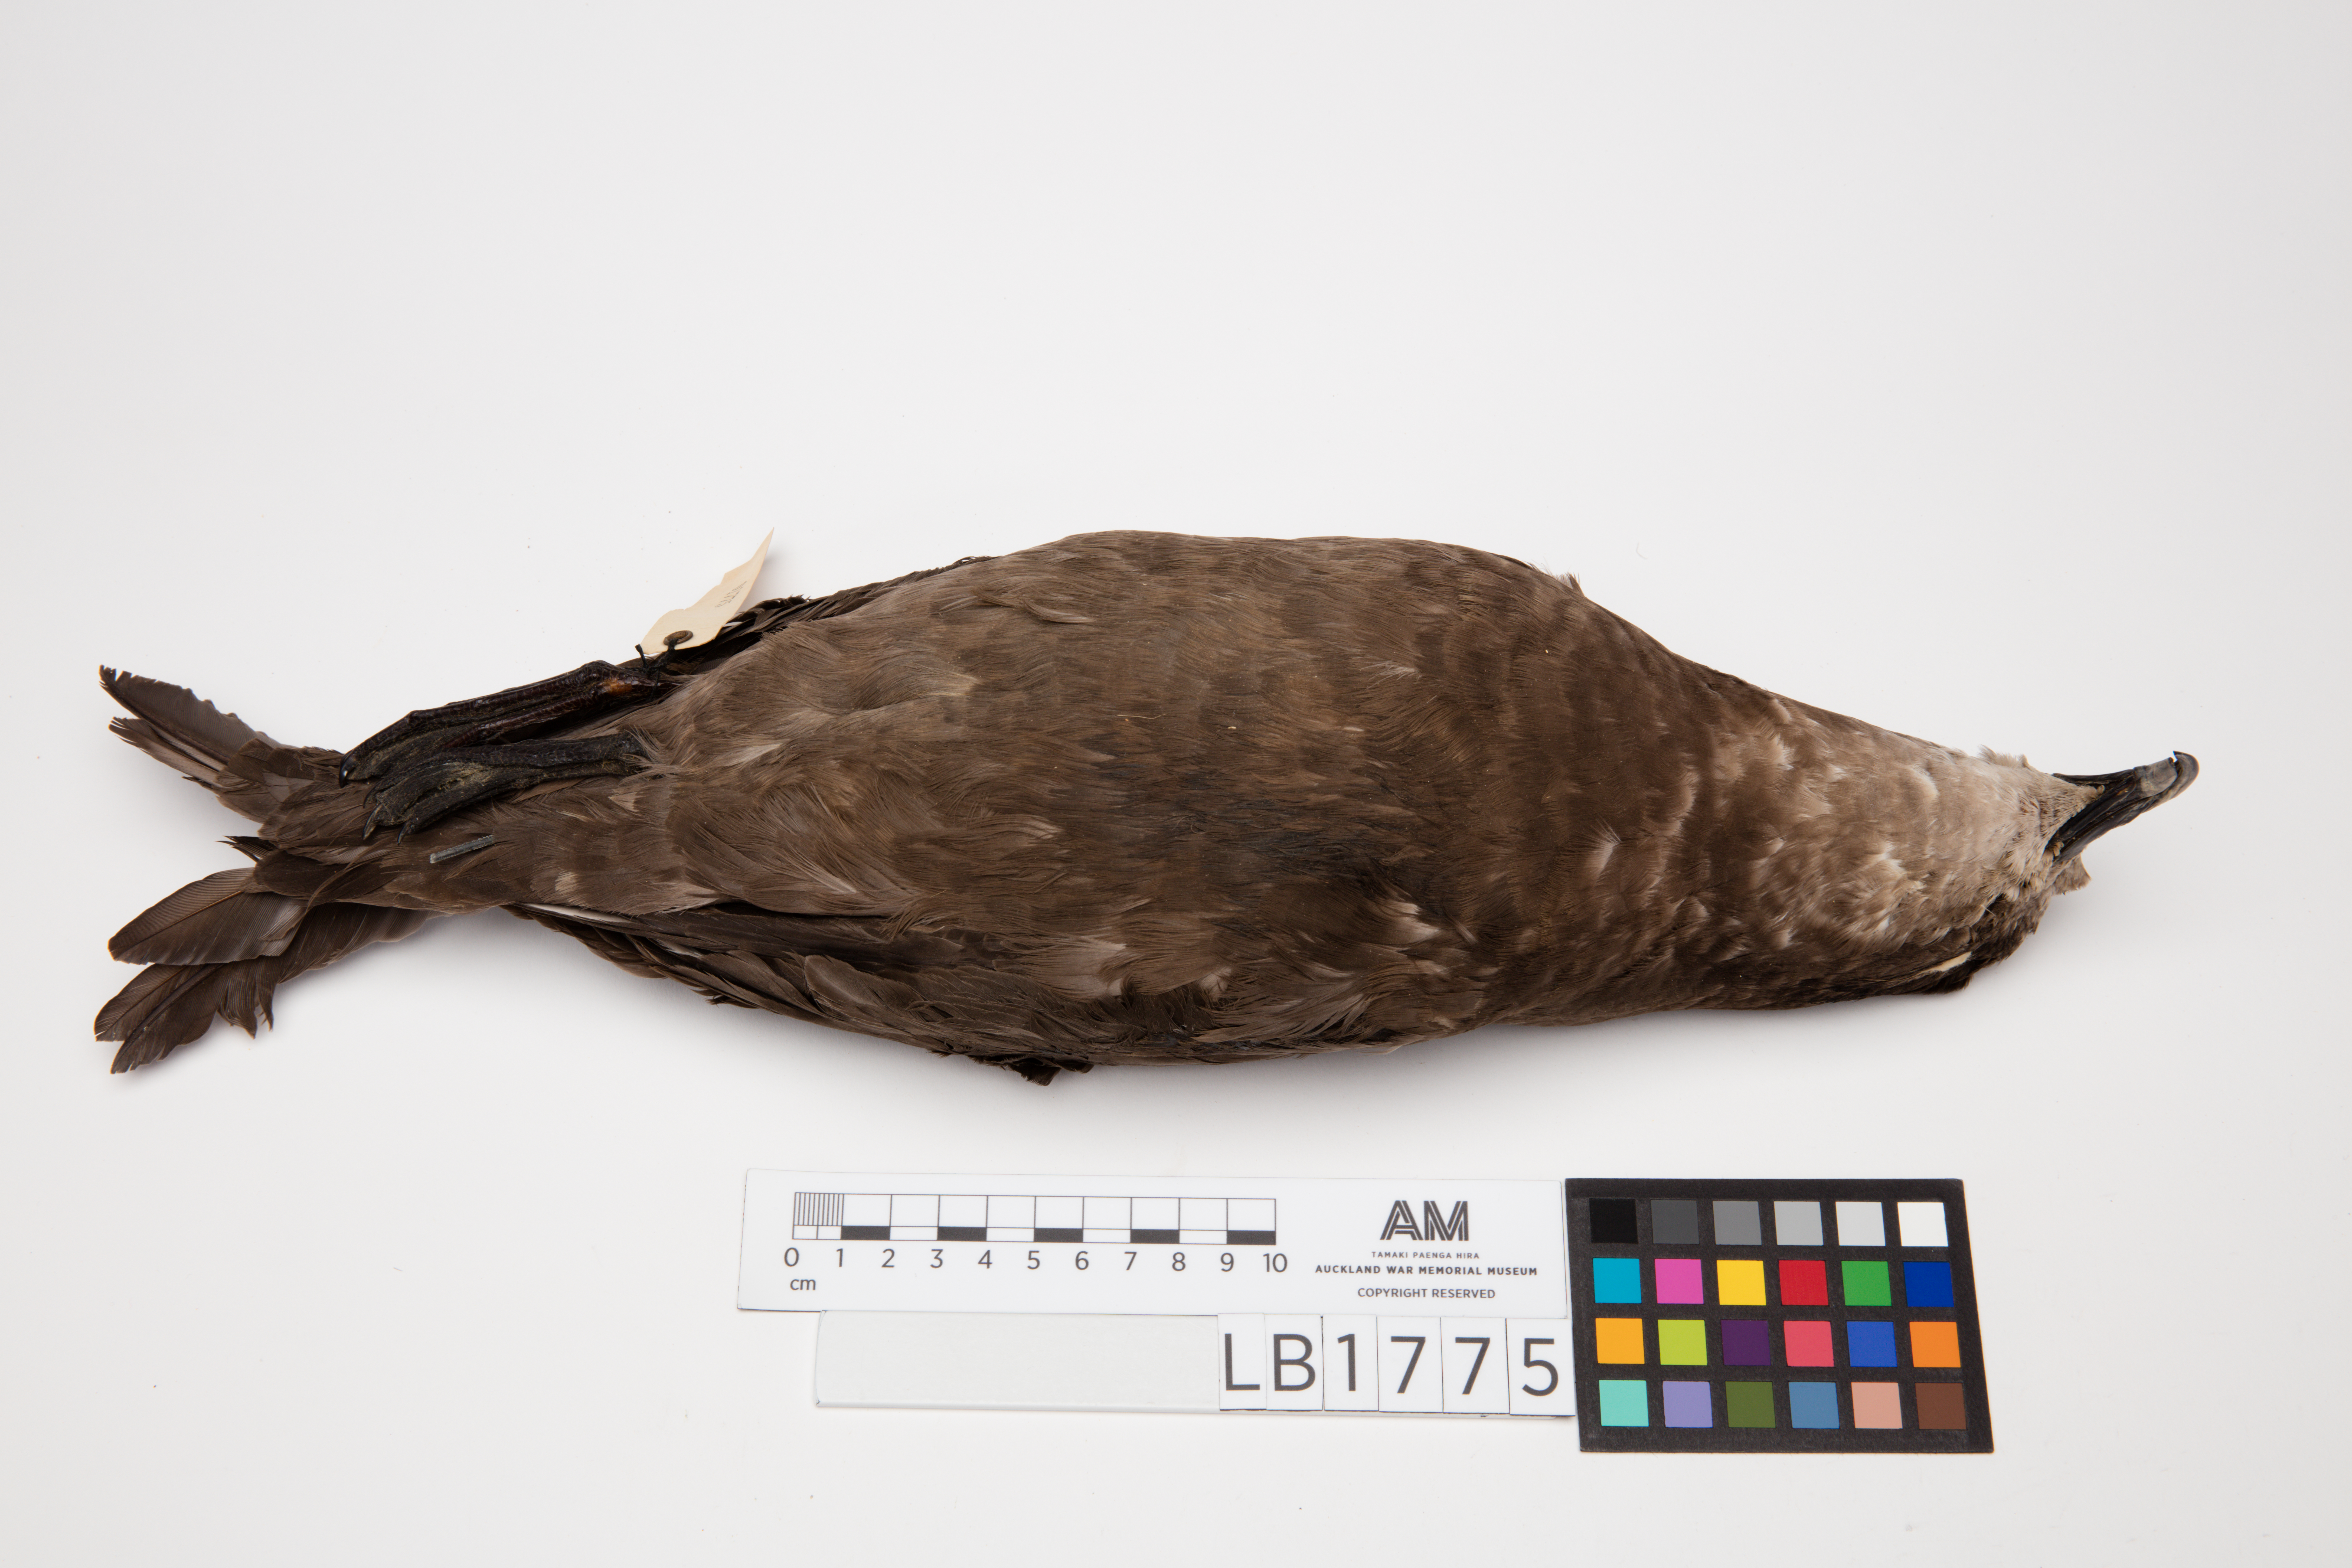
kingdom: Animalia
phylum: Chordata
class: Aves
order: Procellariiformes
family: Procellariidae
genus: Pterodroma
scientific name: Pterodroma macroptera
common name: Great-winged petrel
